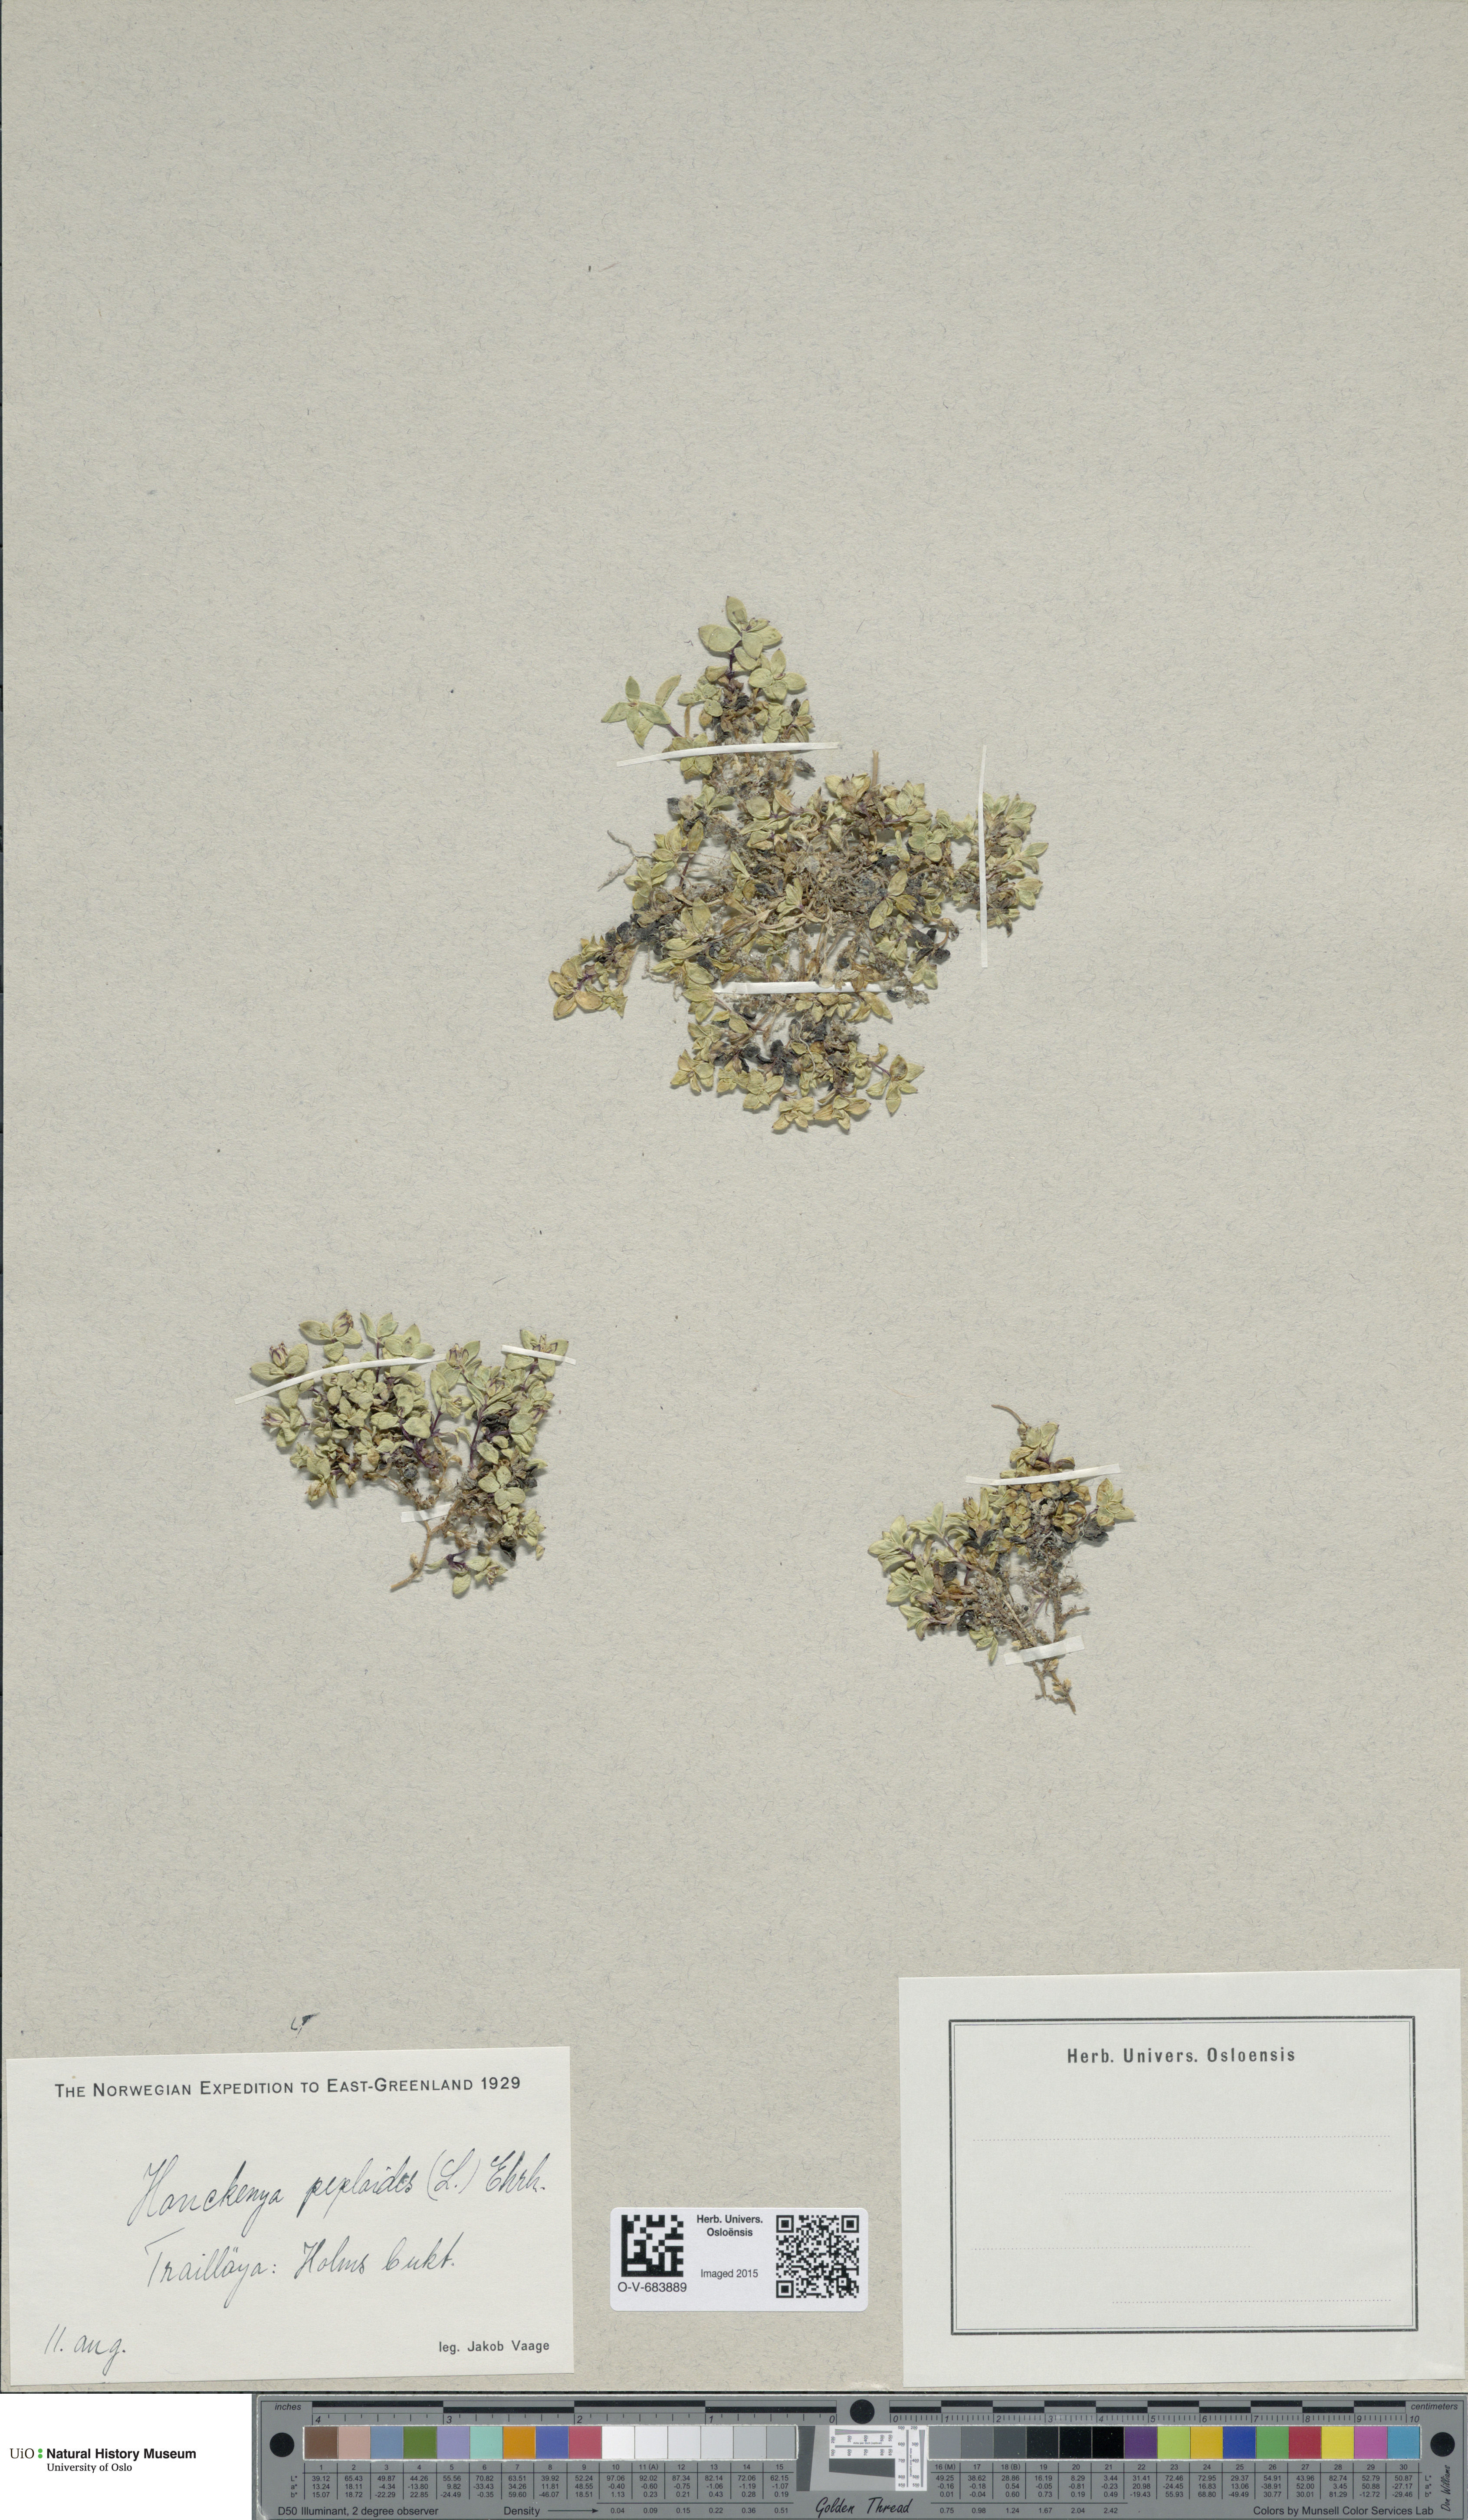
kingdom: Plantae
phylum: Tracheophyta
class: Magnoliopsida
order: Caryophyllales
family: Caryophyllaceae
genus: Honckenya
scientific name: Honckenya peploides
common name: Sea sandwort
